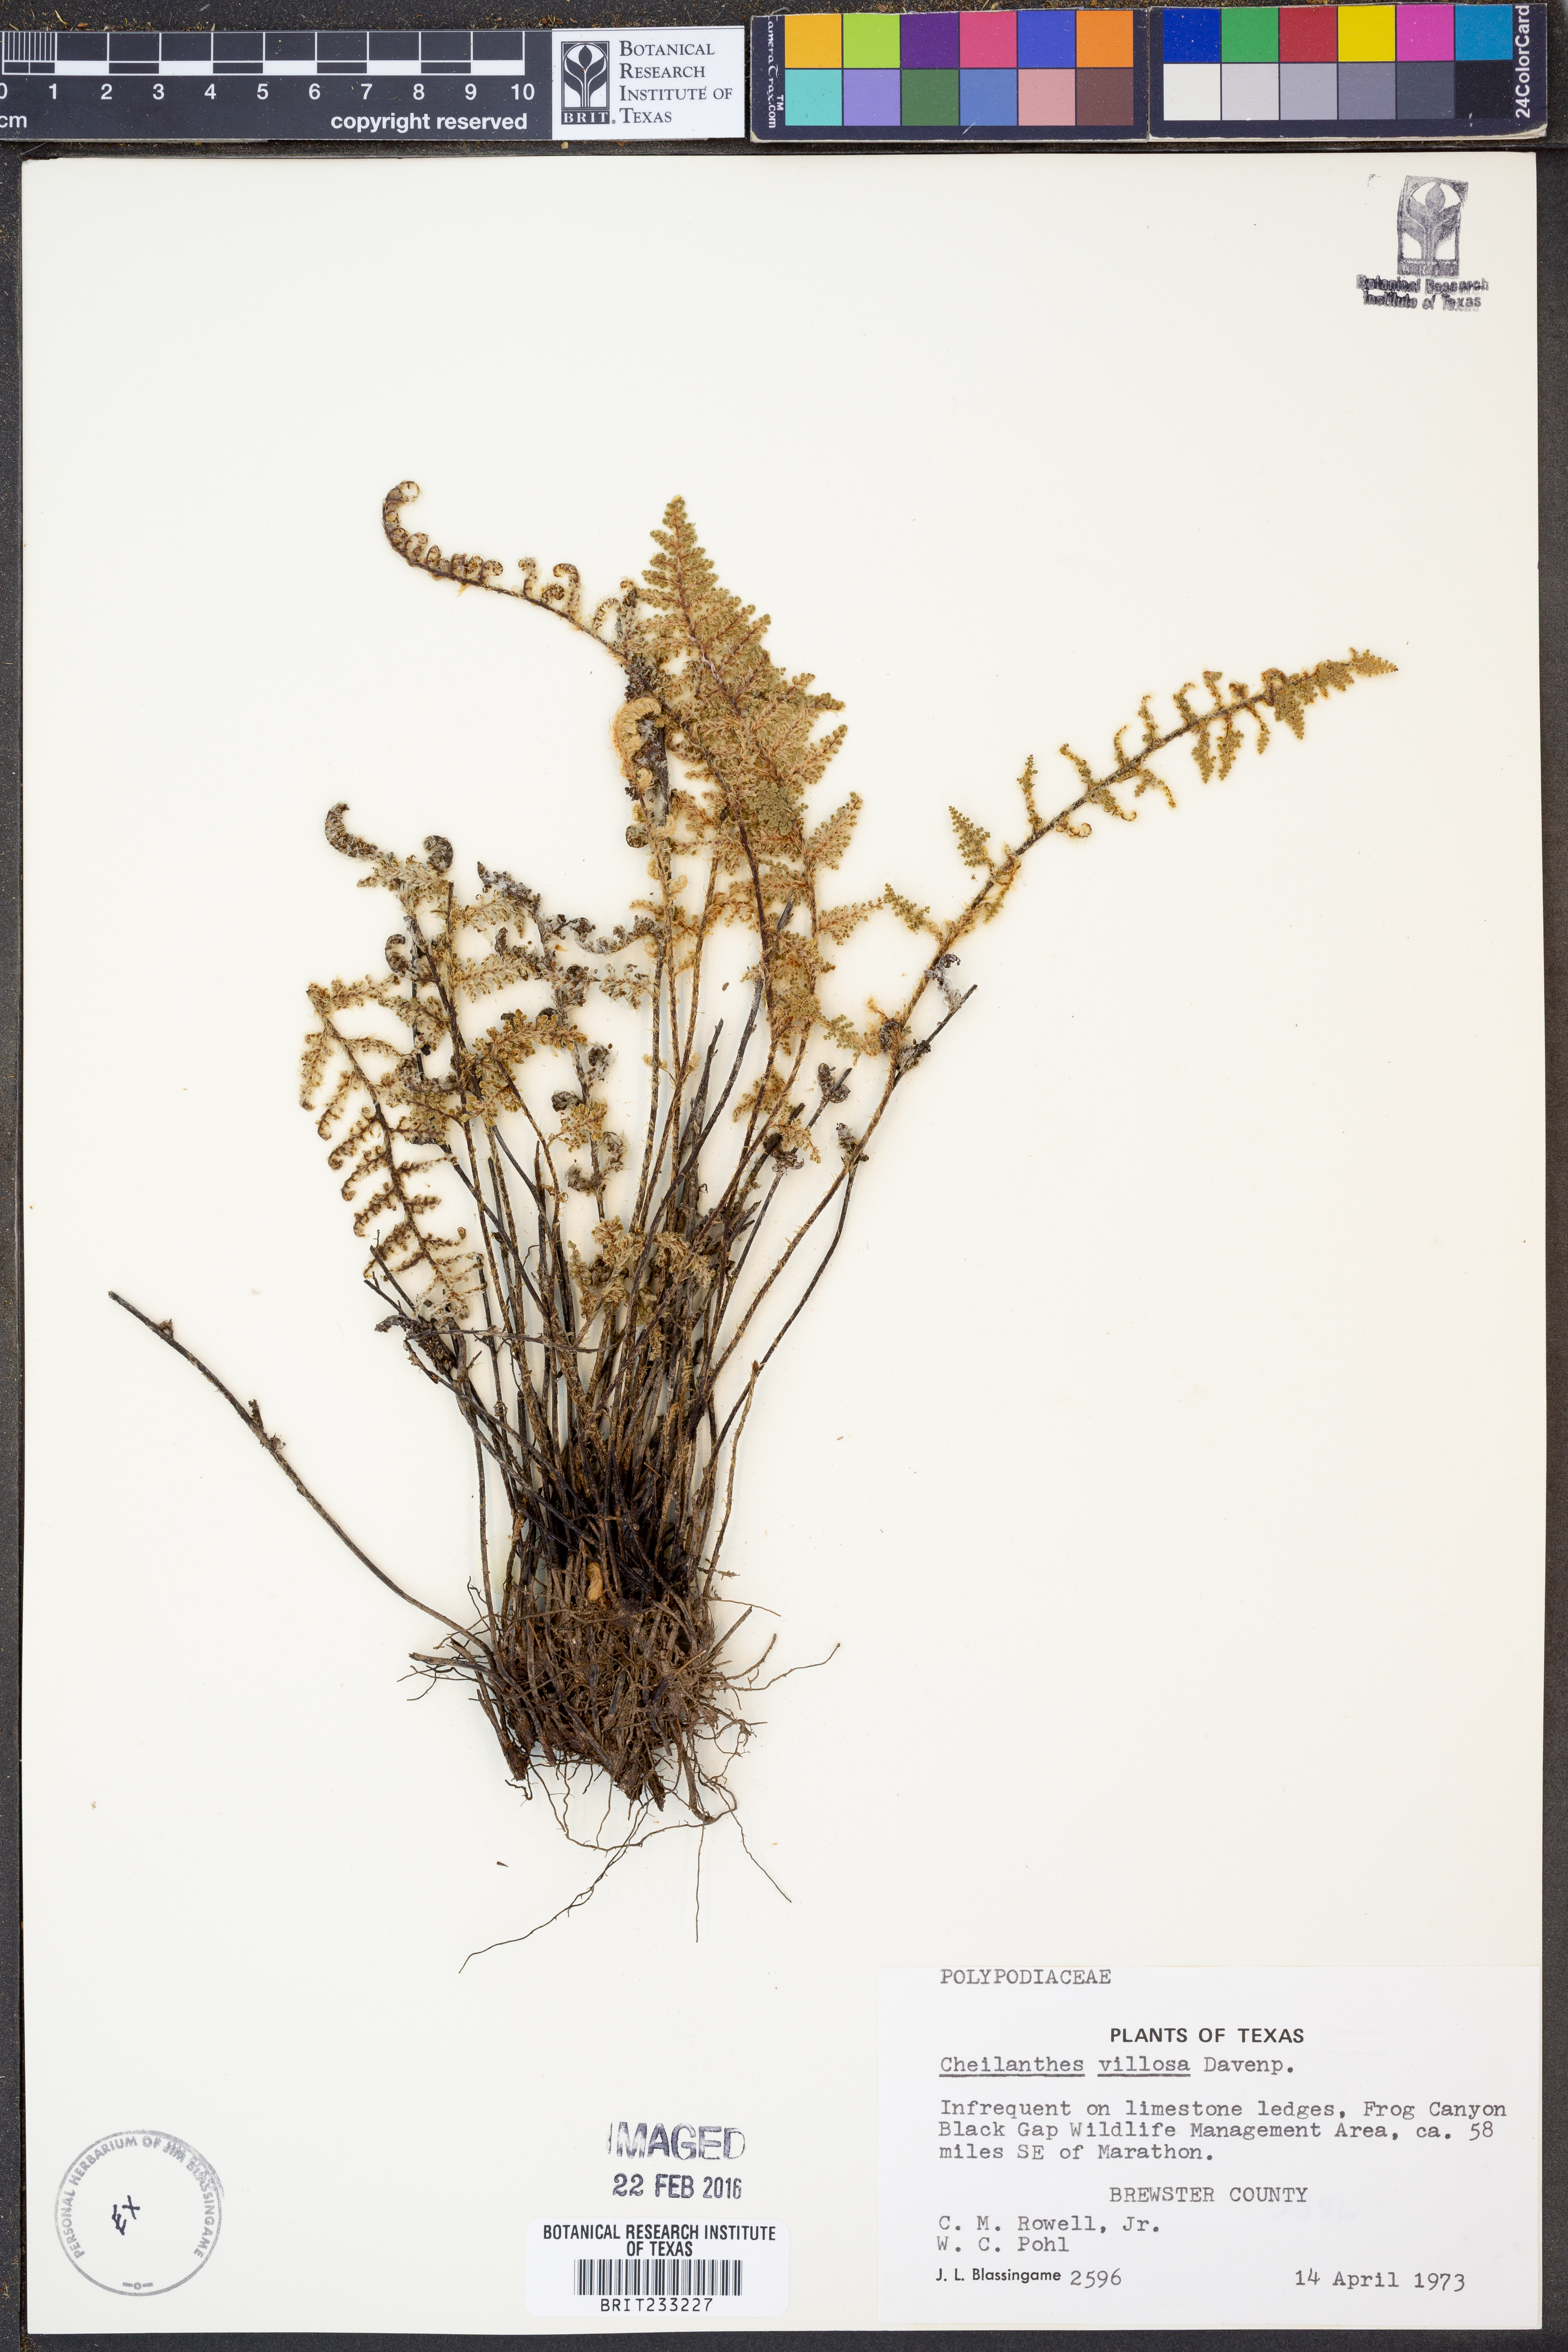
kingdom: Plantae
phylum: Tracheophyta
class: Polypodiopsida
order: Polypodiales
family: Pteridaceae
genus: Myriopteris
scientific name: Myriopteris windhamii
